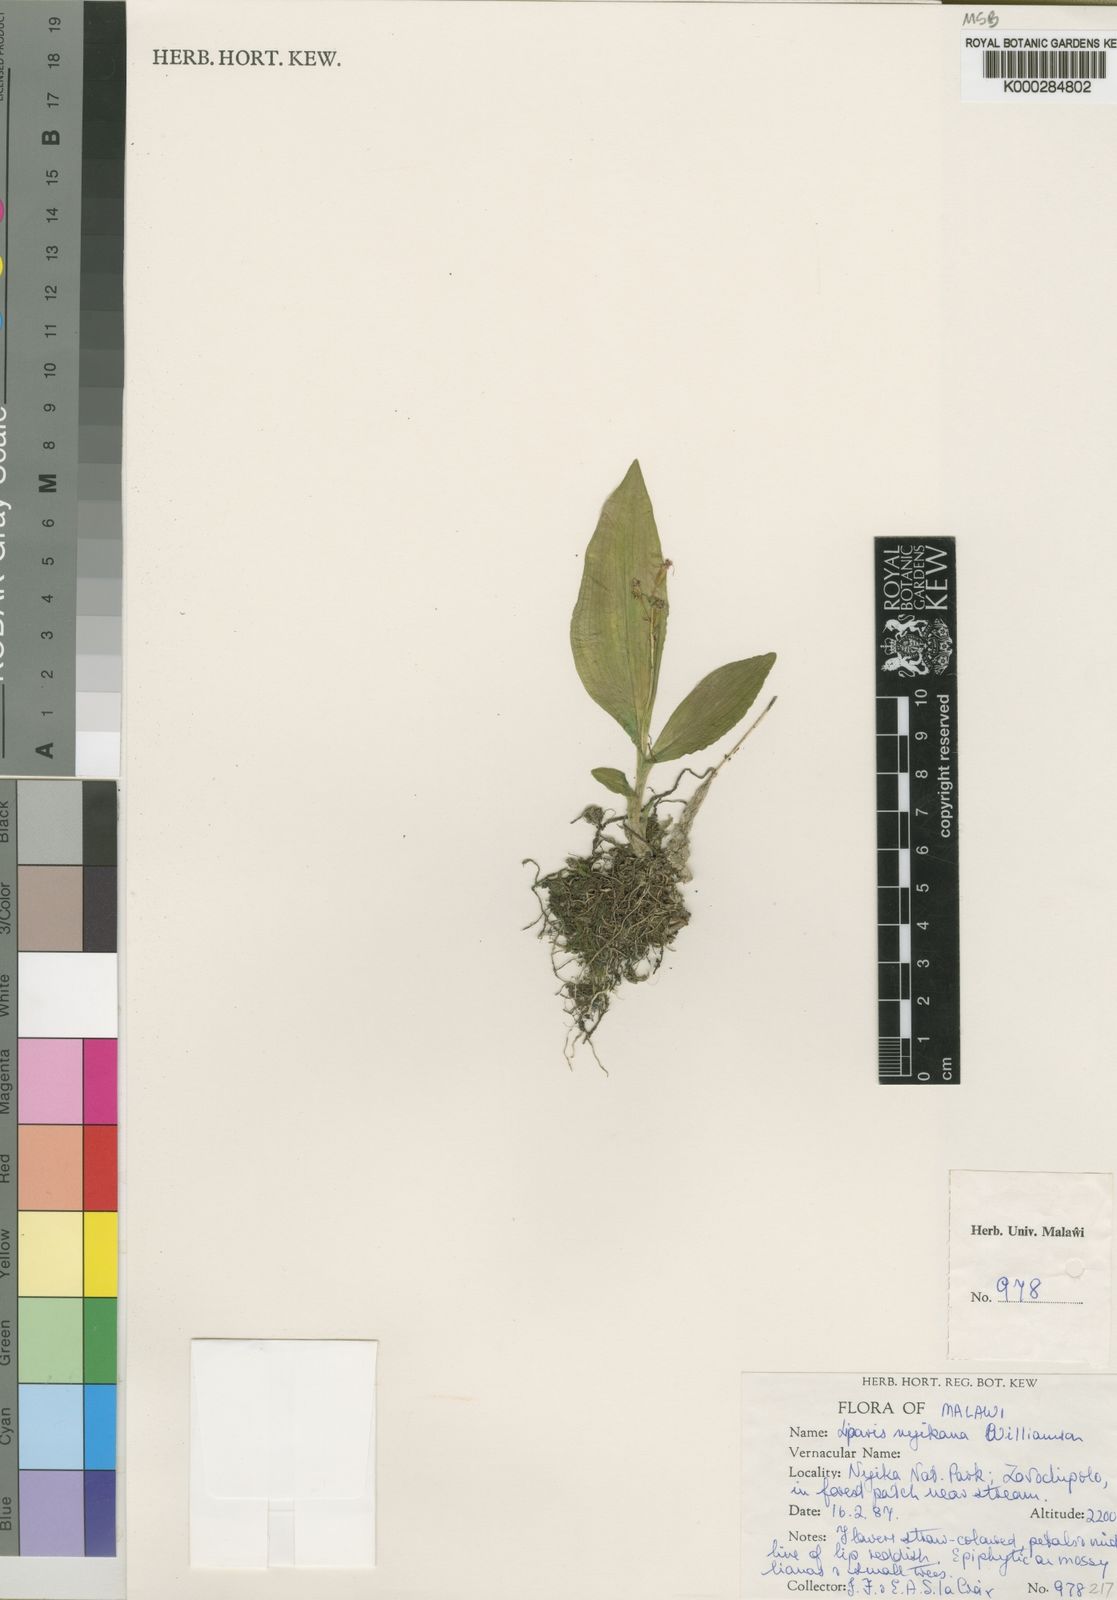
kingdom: Plantae
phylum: Tracheophyta
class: Liliopsida
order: Asparagales
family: Orchidaceae
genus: Liparis
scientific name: Liparis nyikana
